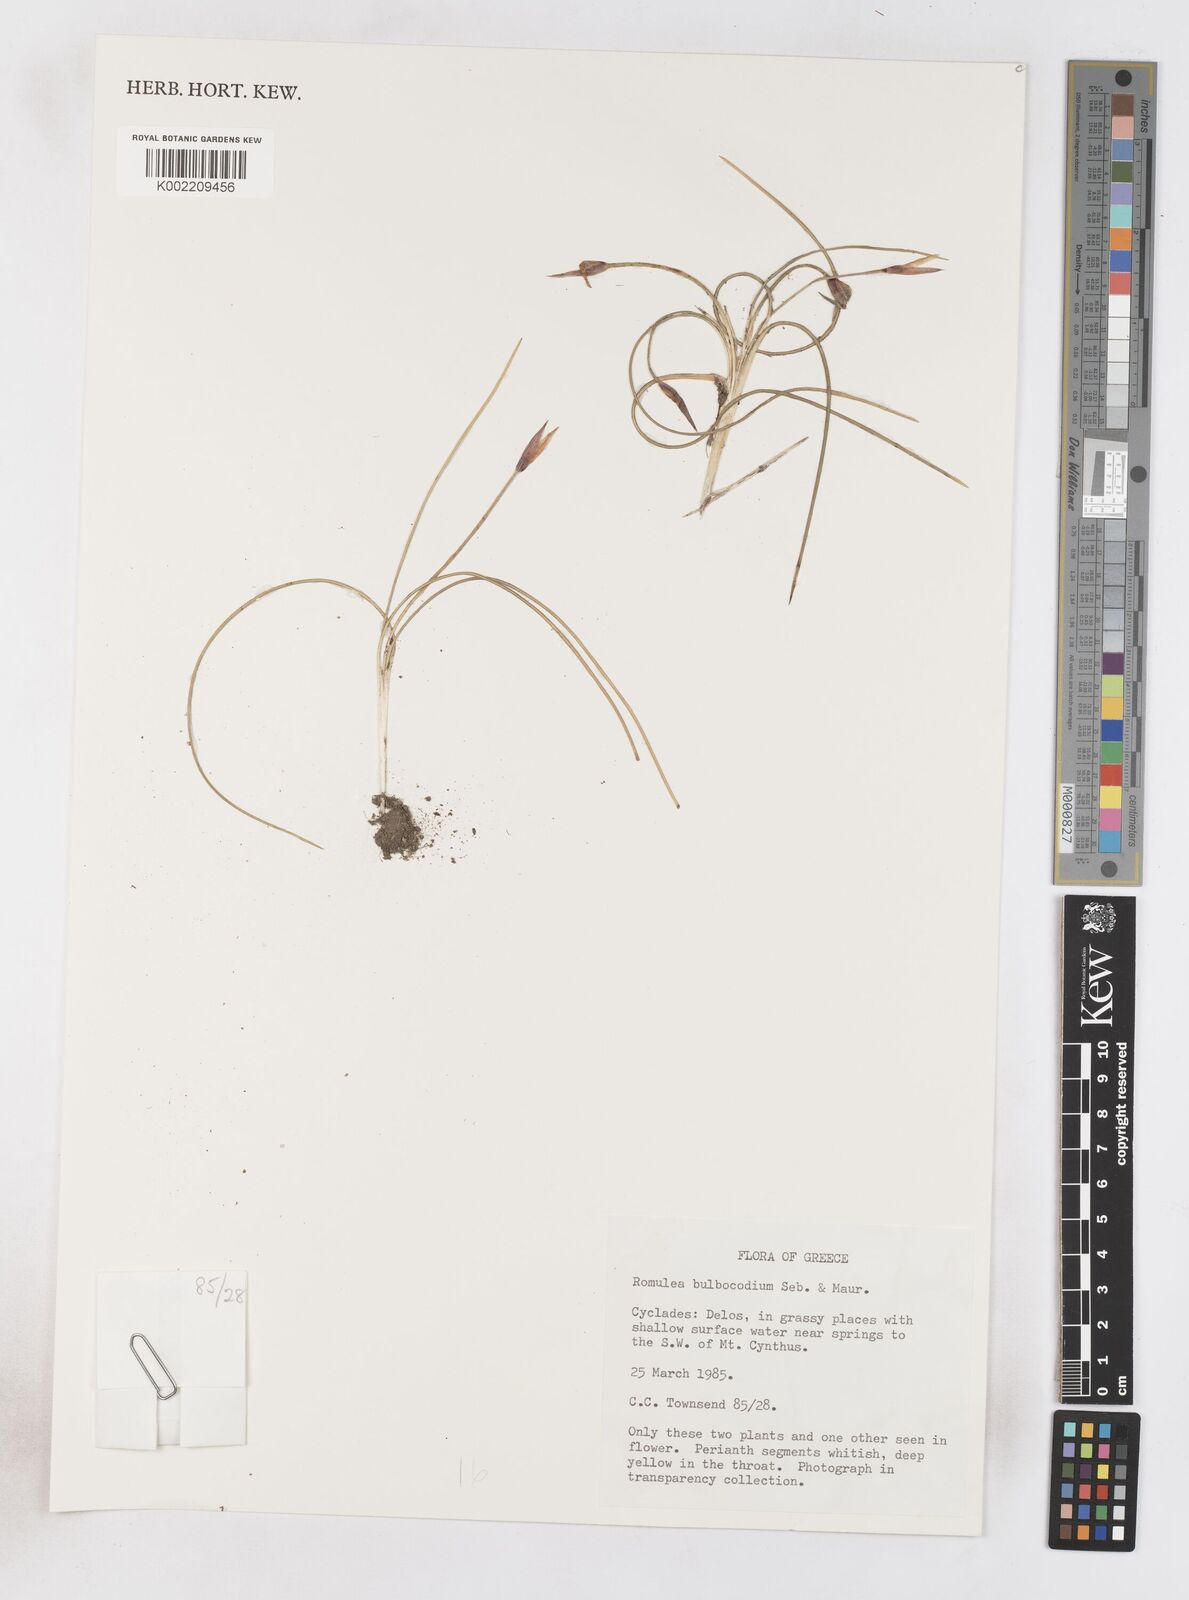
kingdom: Plantae
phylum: Tracheophyta
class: Liliopsida
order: Asparagales
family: Iridaceae
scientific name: Iridaceae
